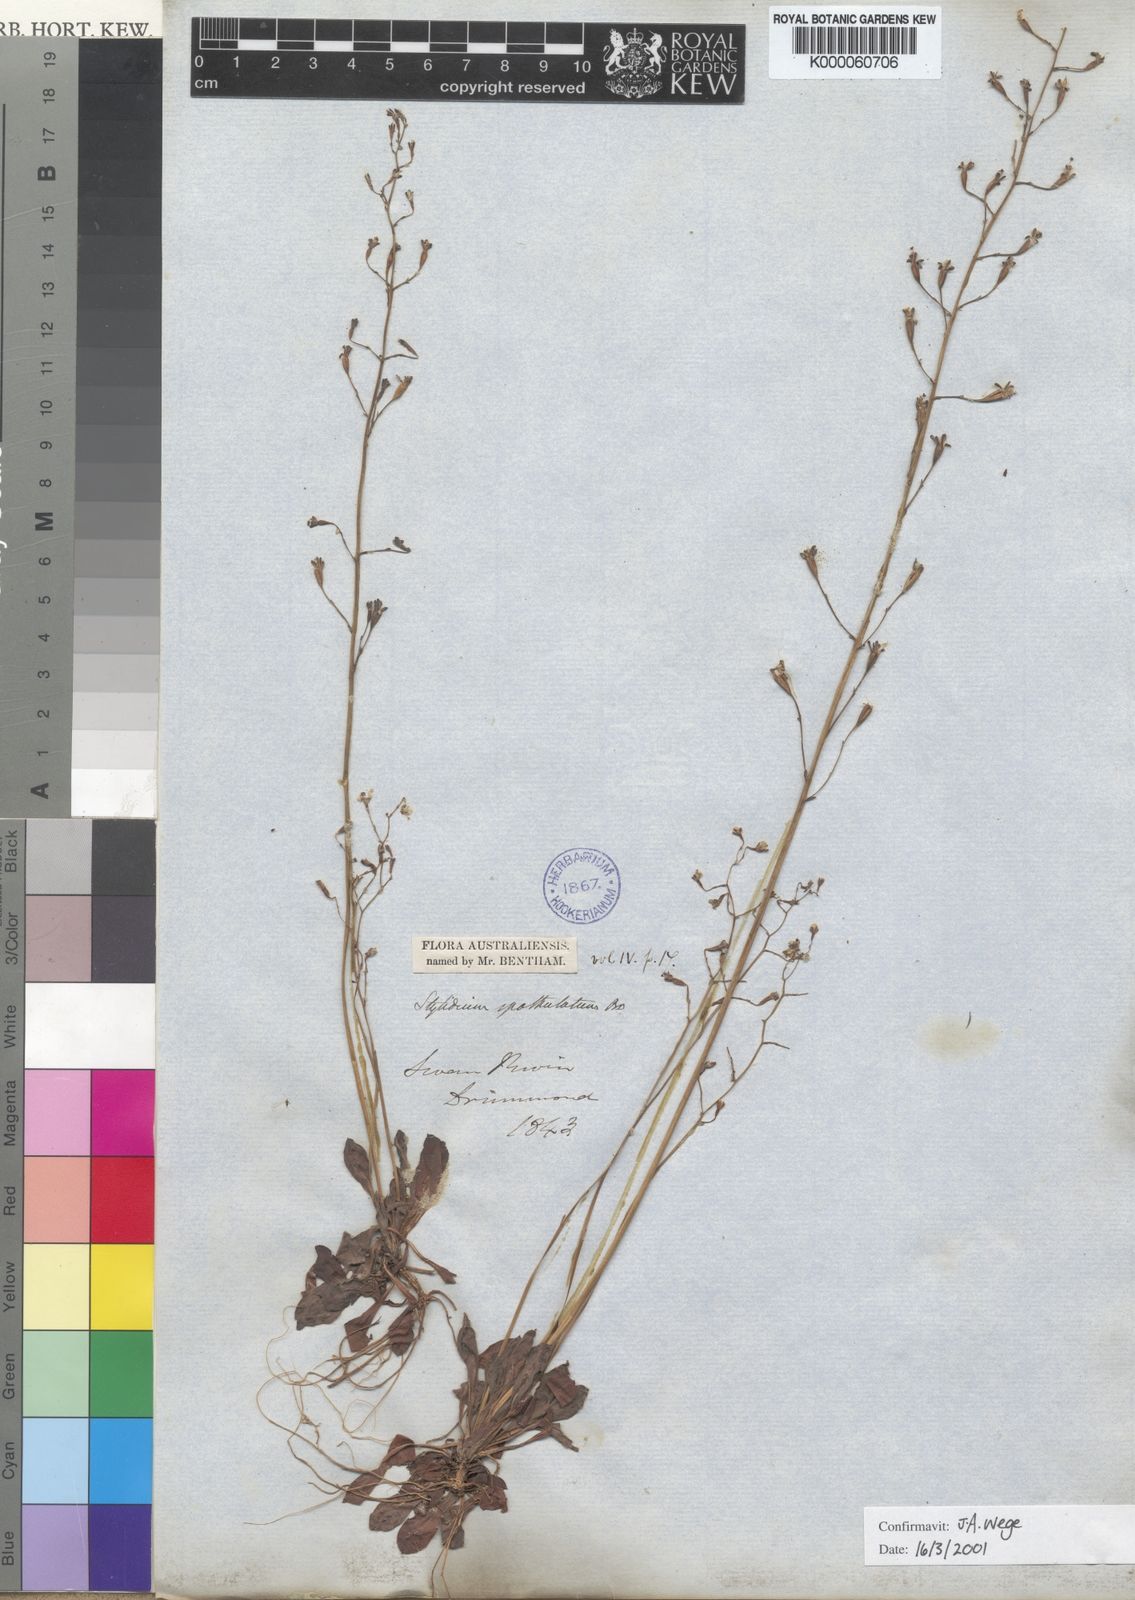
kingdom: Plantae
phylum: Tracheophyta
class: Magnoliopsida
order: Asterales
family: Stylidiaceae
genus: Stylidium
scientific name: Stylidium spathulatum
